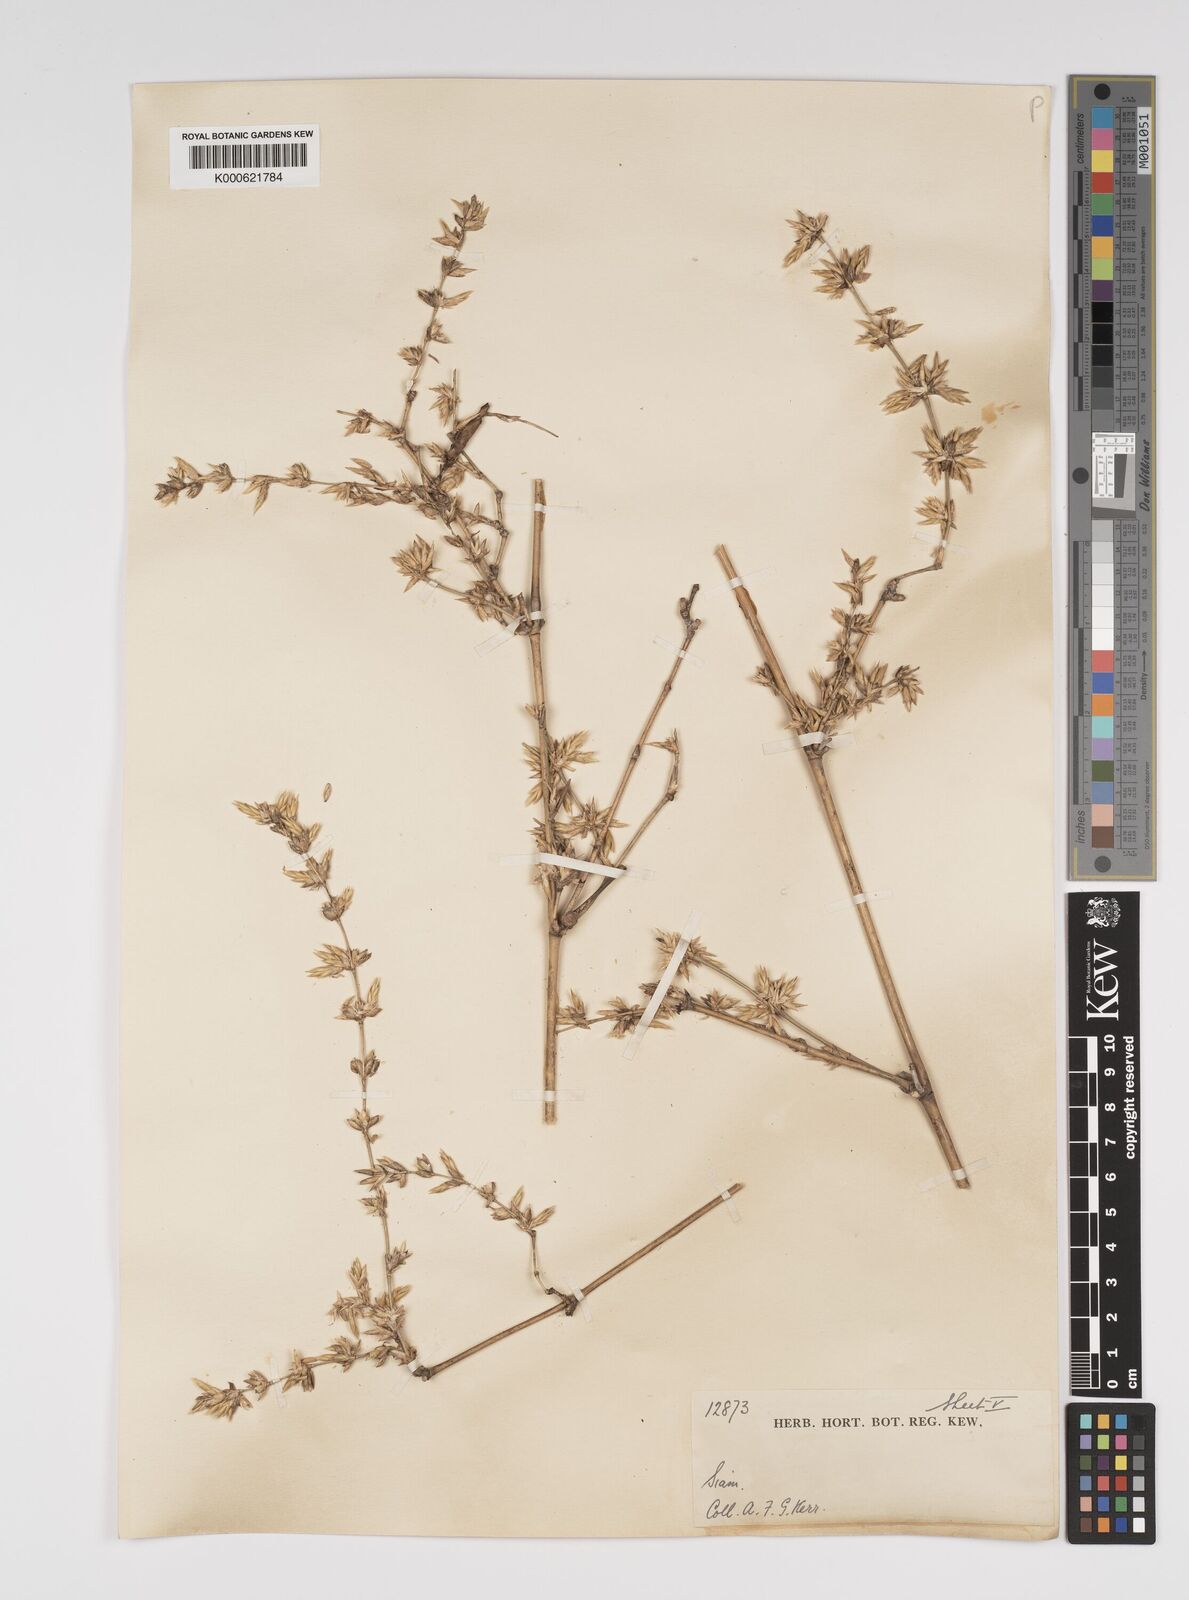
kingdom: Plantae
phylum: Tracheophyta
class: Liliopsida
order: Poales
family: Poaceae
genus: Bambusa
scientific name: Bambusa bambos
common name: Indian thorny bamboo
